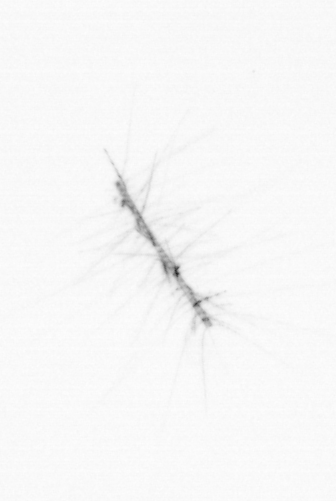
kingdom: Chromista
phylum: Ochrophyta
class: Bacillariophyceae
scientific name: Bacillariophyceae
